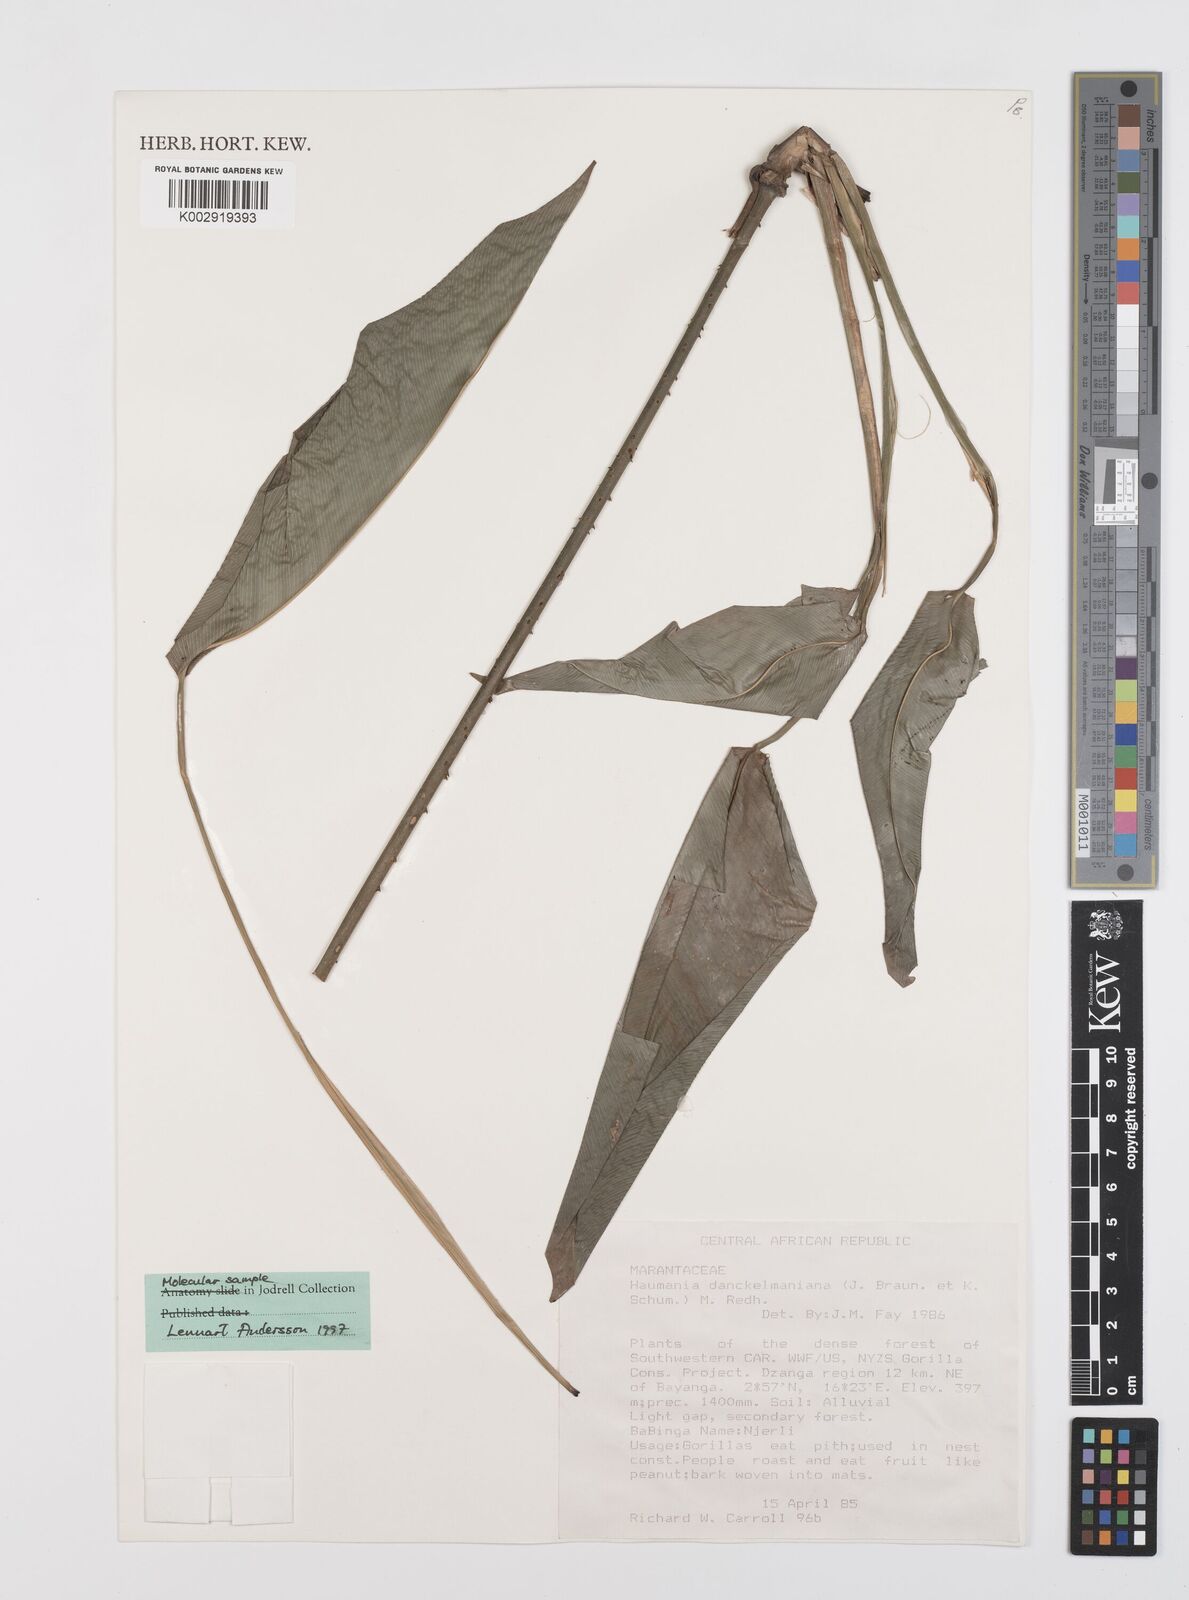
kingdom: Plantae
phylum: Tracheophyta
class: Liliopsida
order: Zingiberales
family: Marantaceae
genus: Haumania
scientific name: Haumania danckelmaniana
